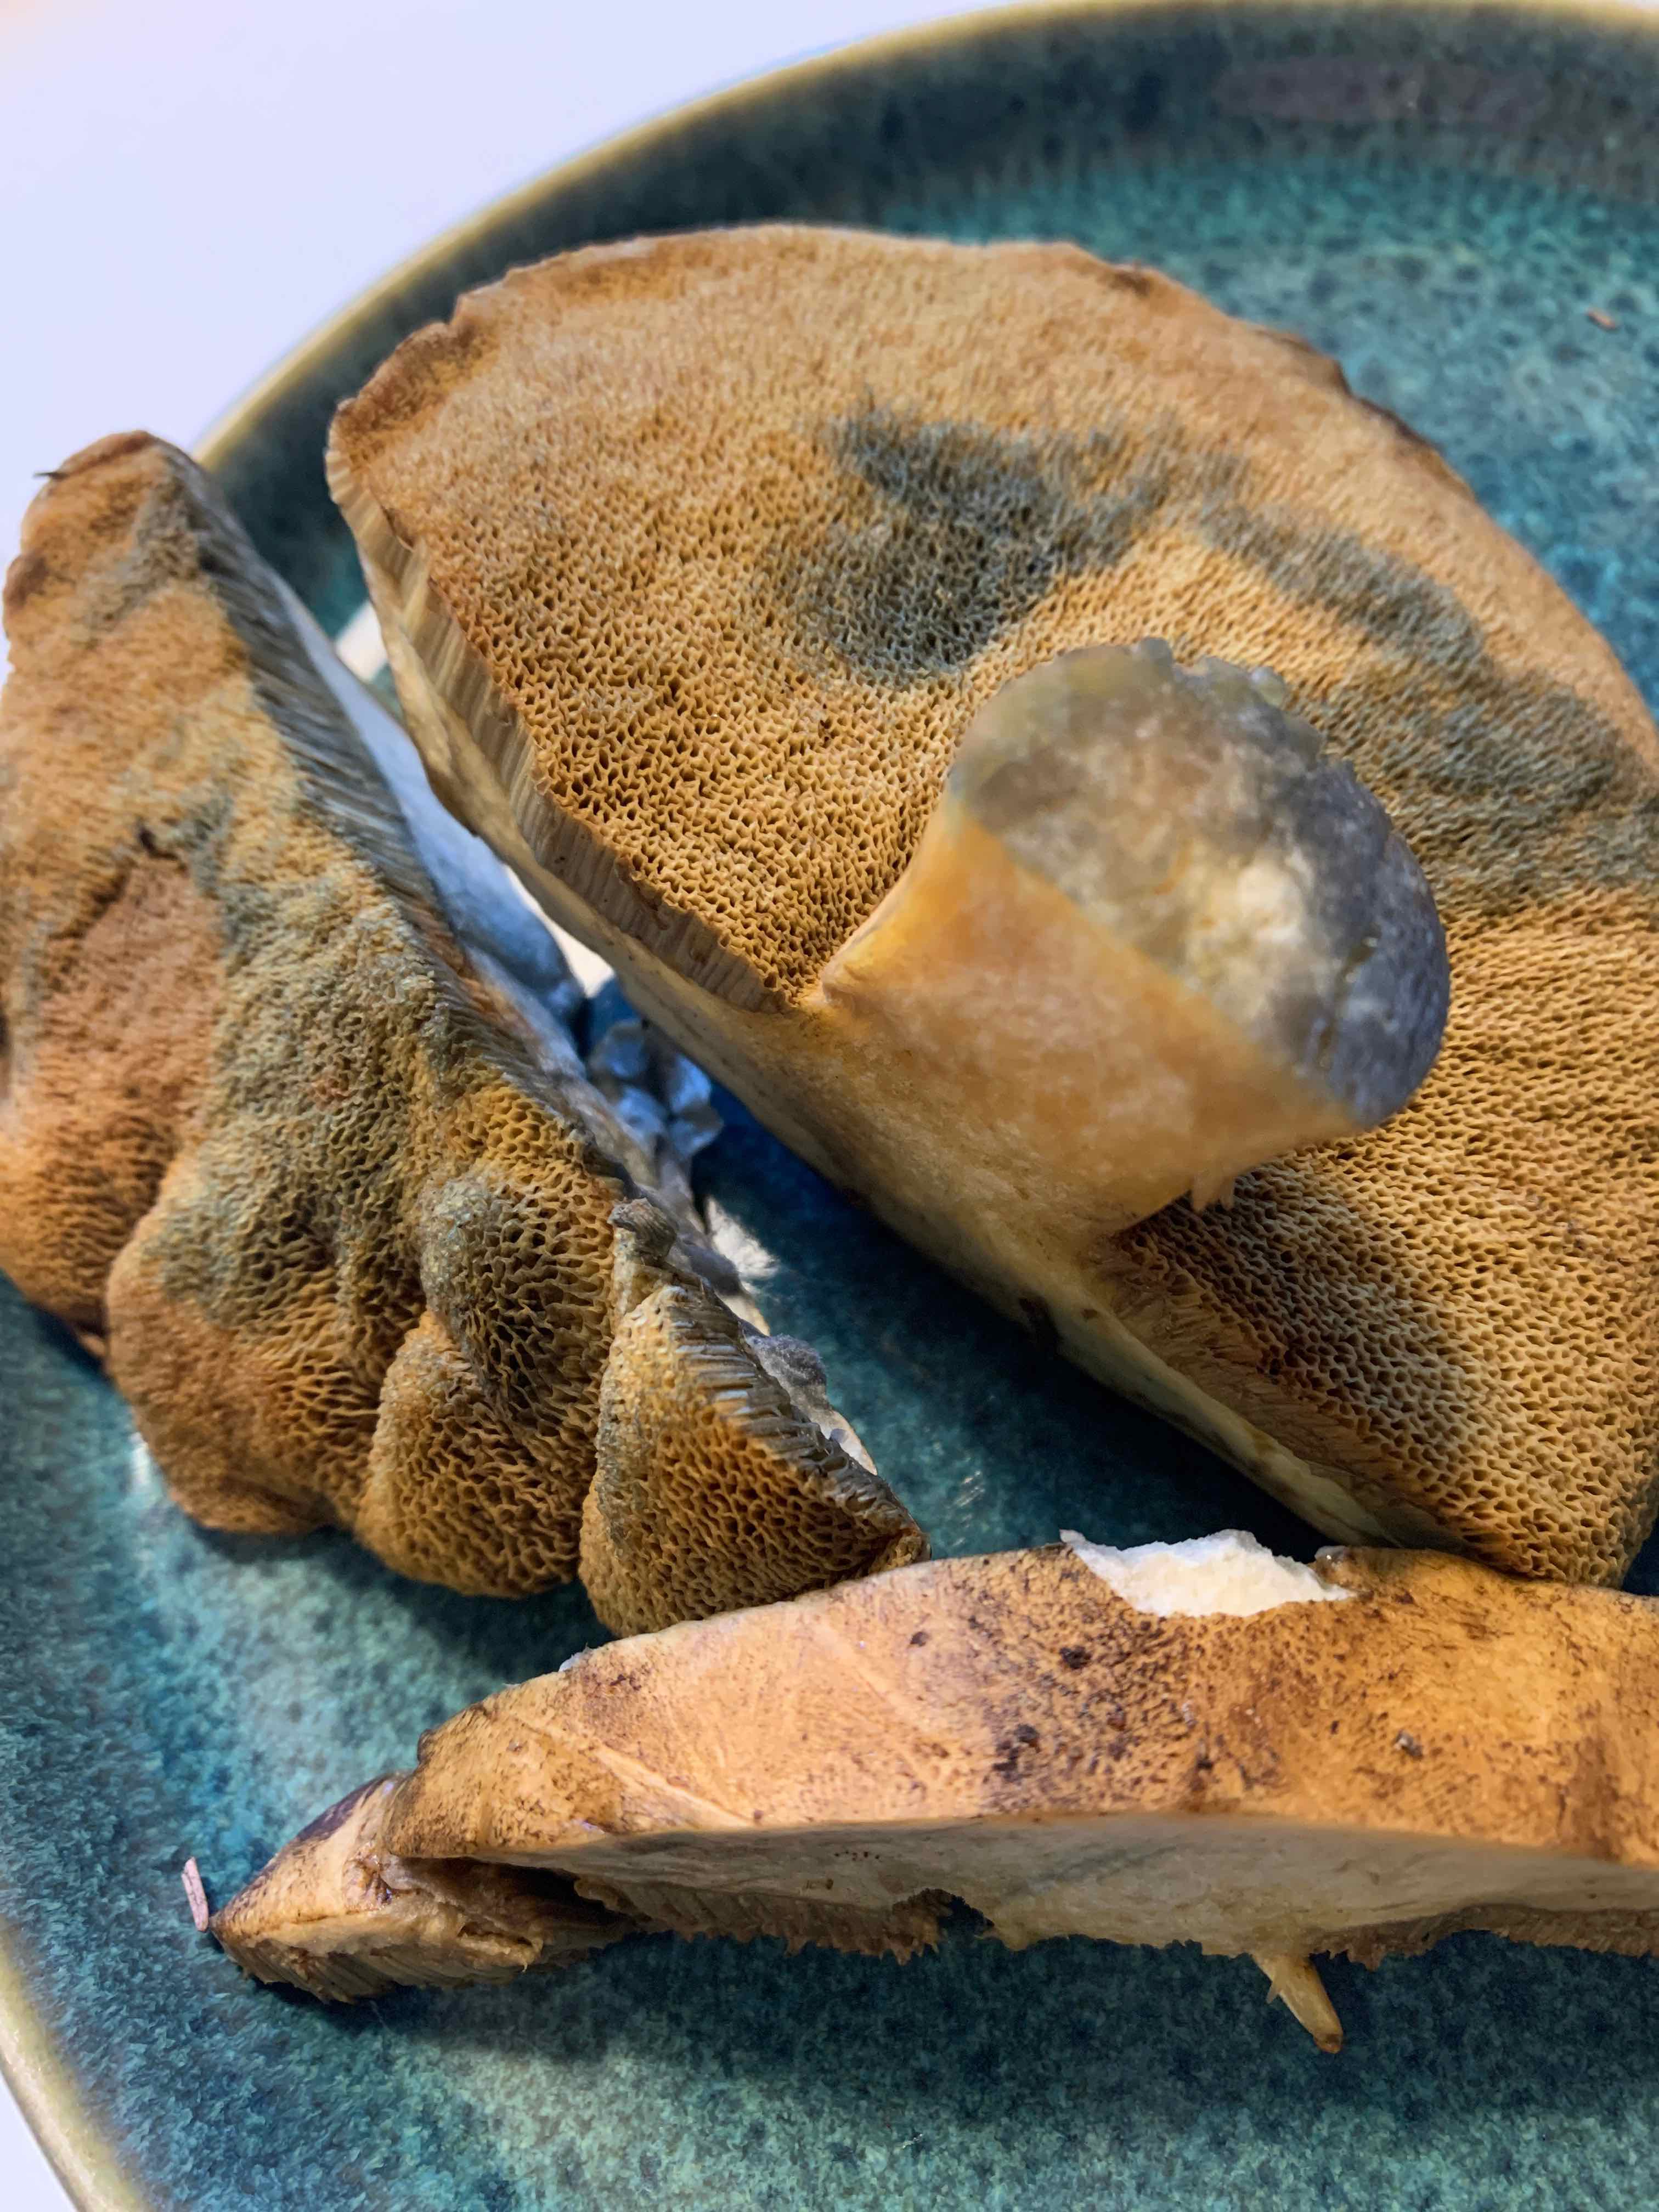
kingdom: Fungi
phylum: Basidiomycota
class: Agaricomycetes
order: Boletales
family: Suillaceae
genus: Suillus
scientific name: Suillus variegatus
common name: broget slimrørhat
